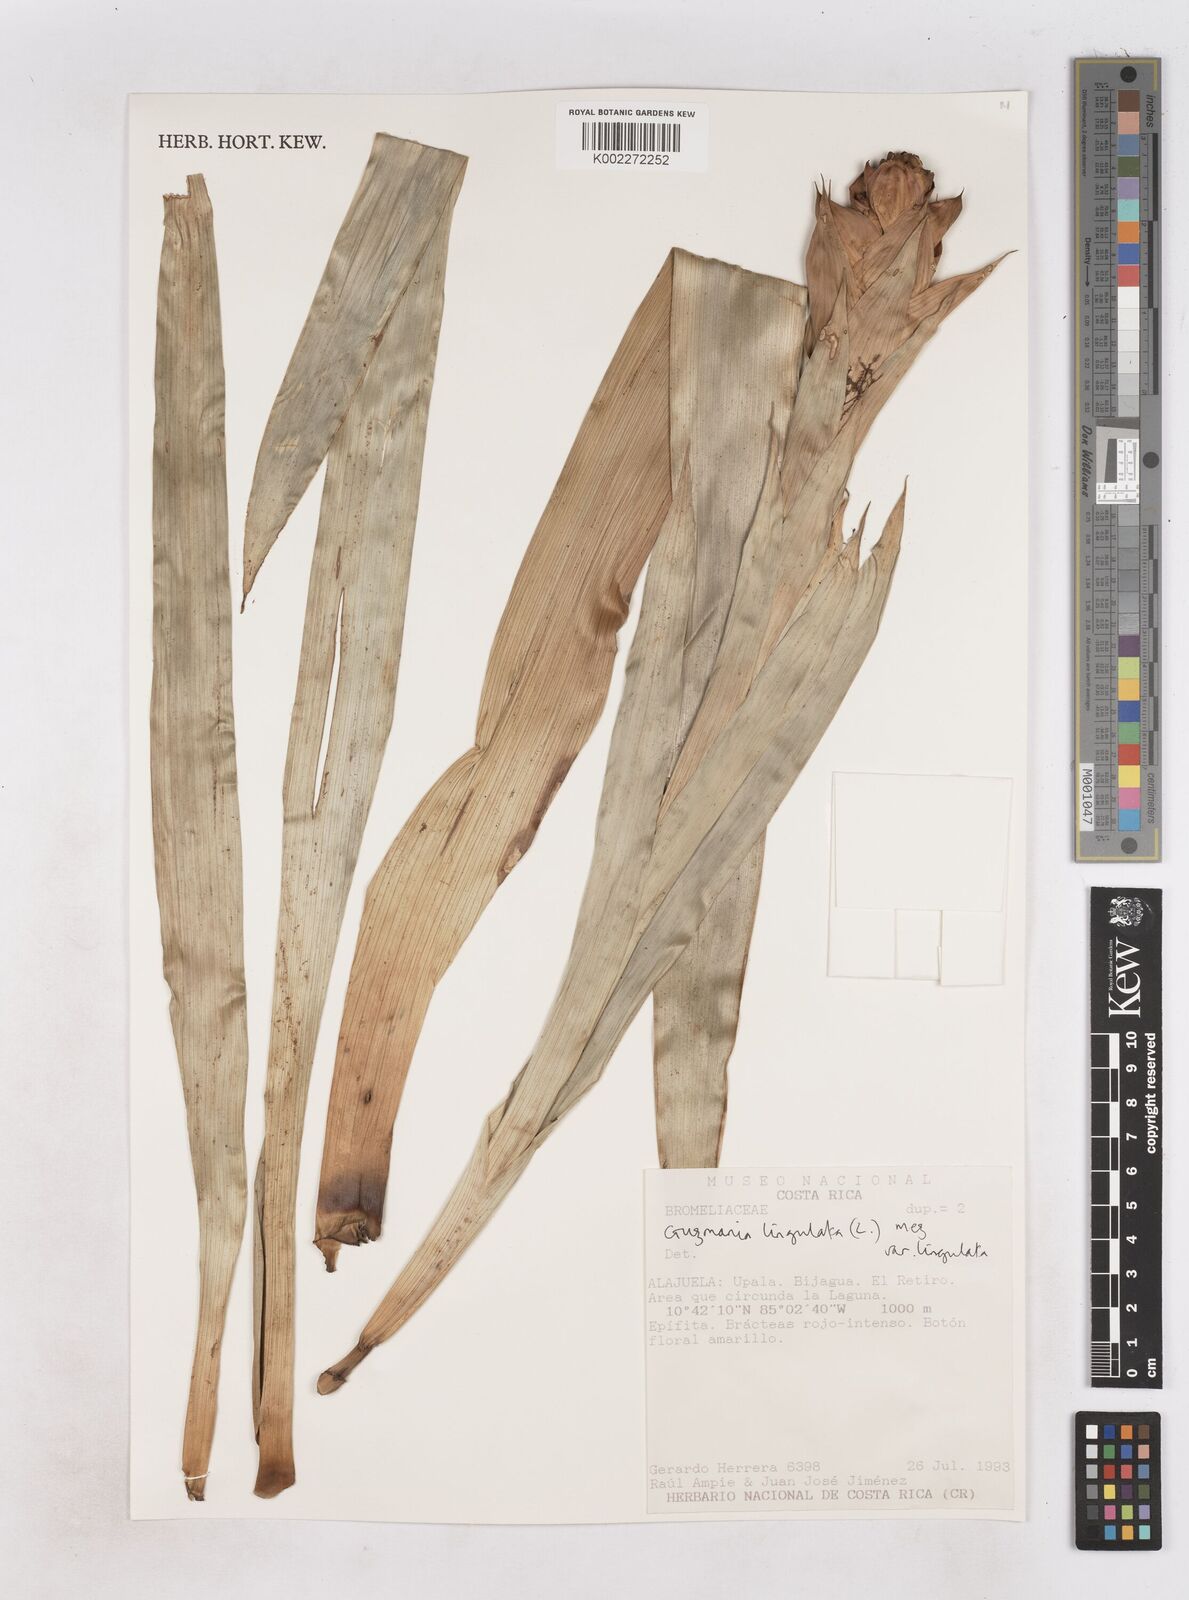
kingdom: Plantae
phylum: Tracheophyta
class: Liliopsida
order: Poales
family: Bromeliaceae
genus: Guzmania
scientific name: Guzmania lingulata
